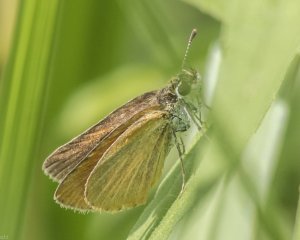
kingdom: Animalia
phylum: Arthropoda
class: Insecta
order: Lepidoptera
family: Hesperiidae
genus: Ancyloxypha
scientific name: Ancyloxypha numitor
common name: Least Skipper
